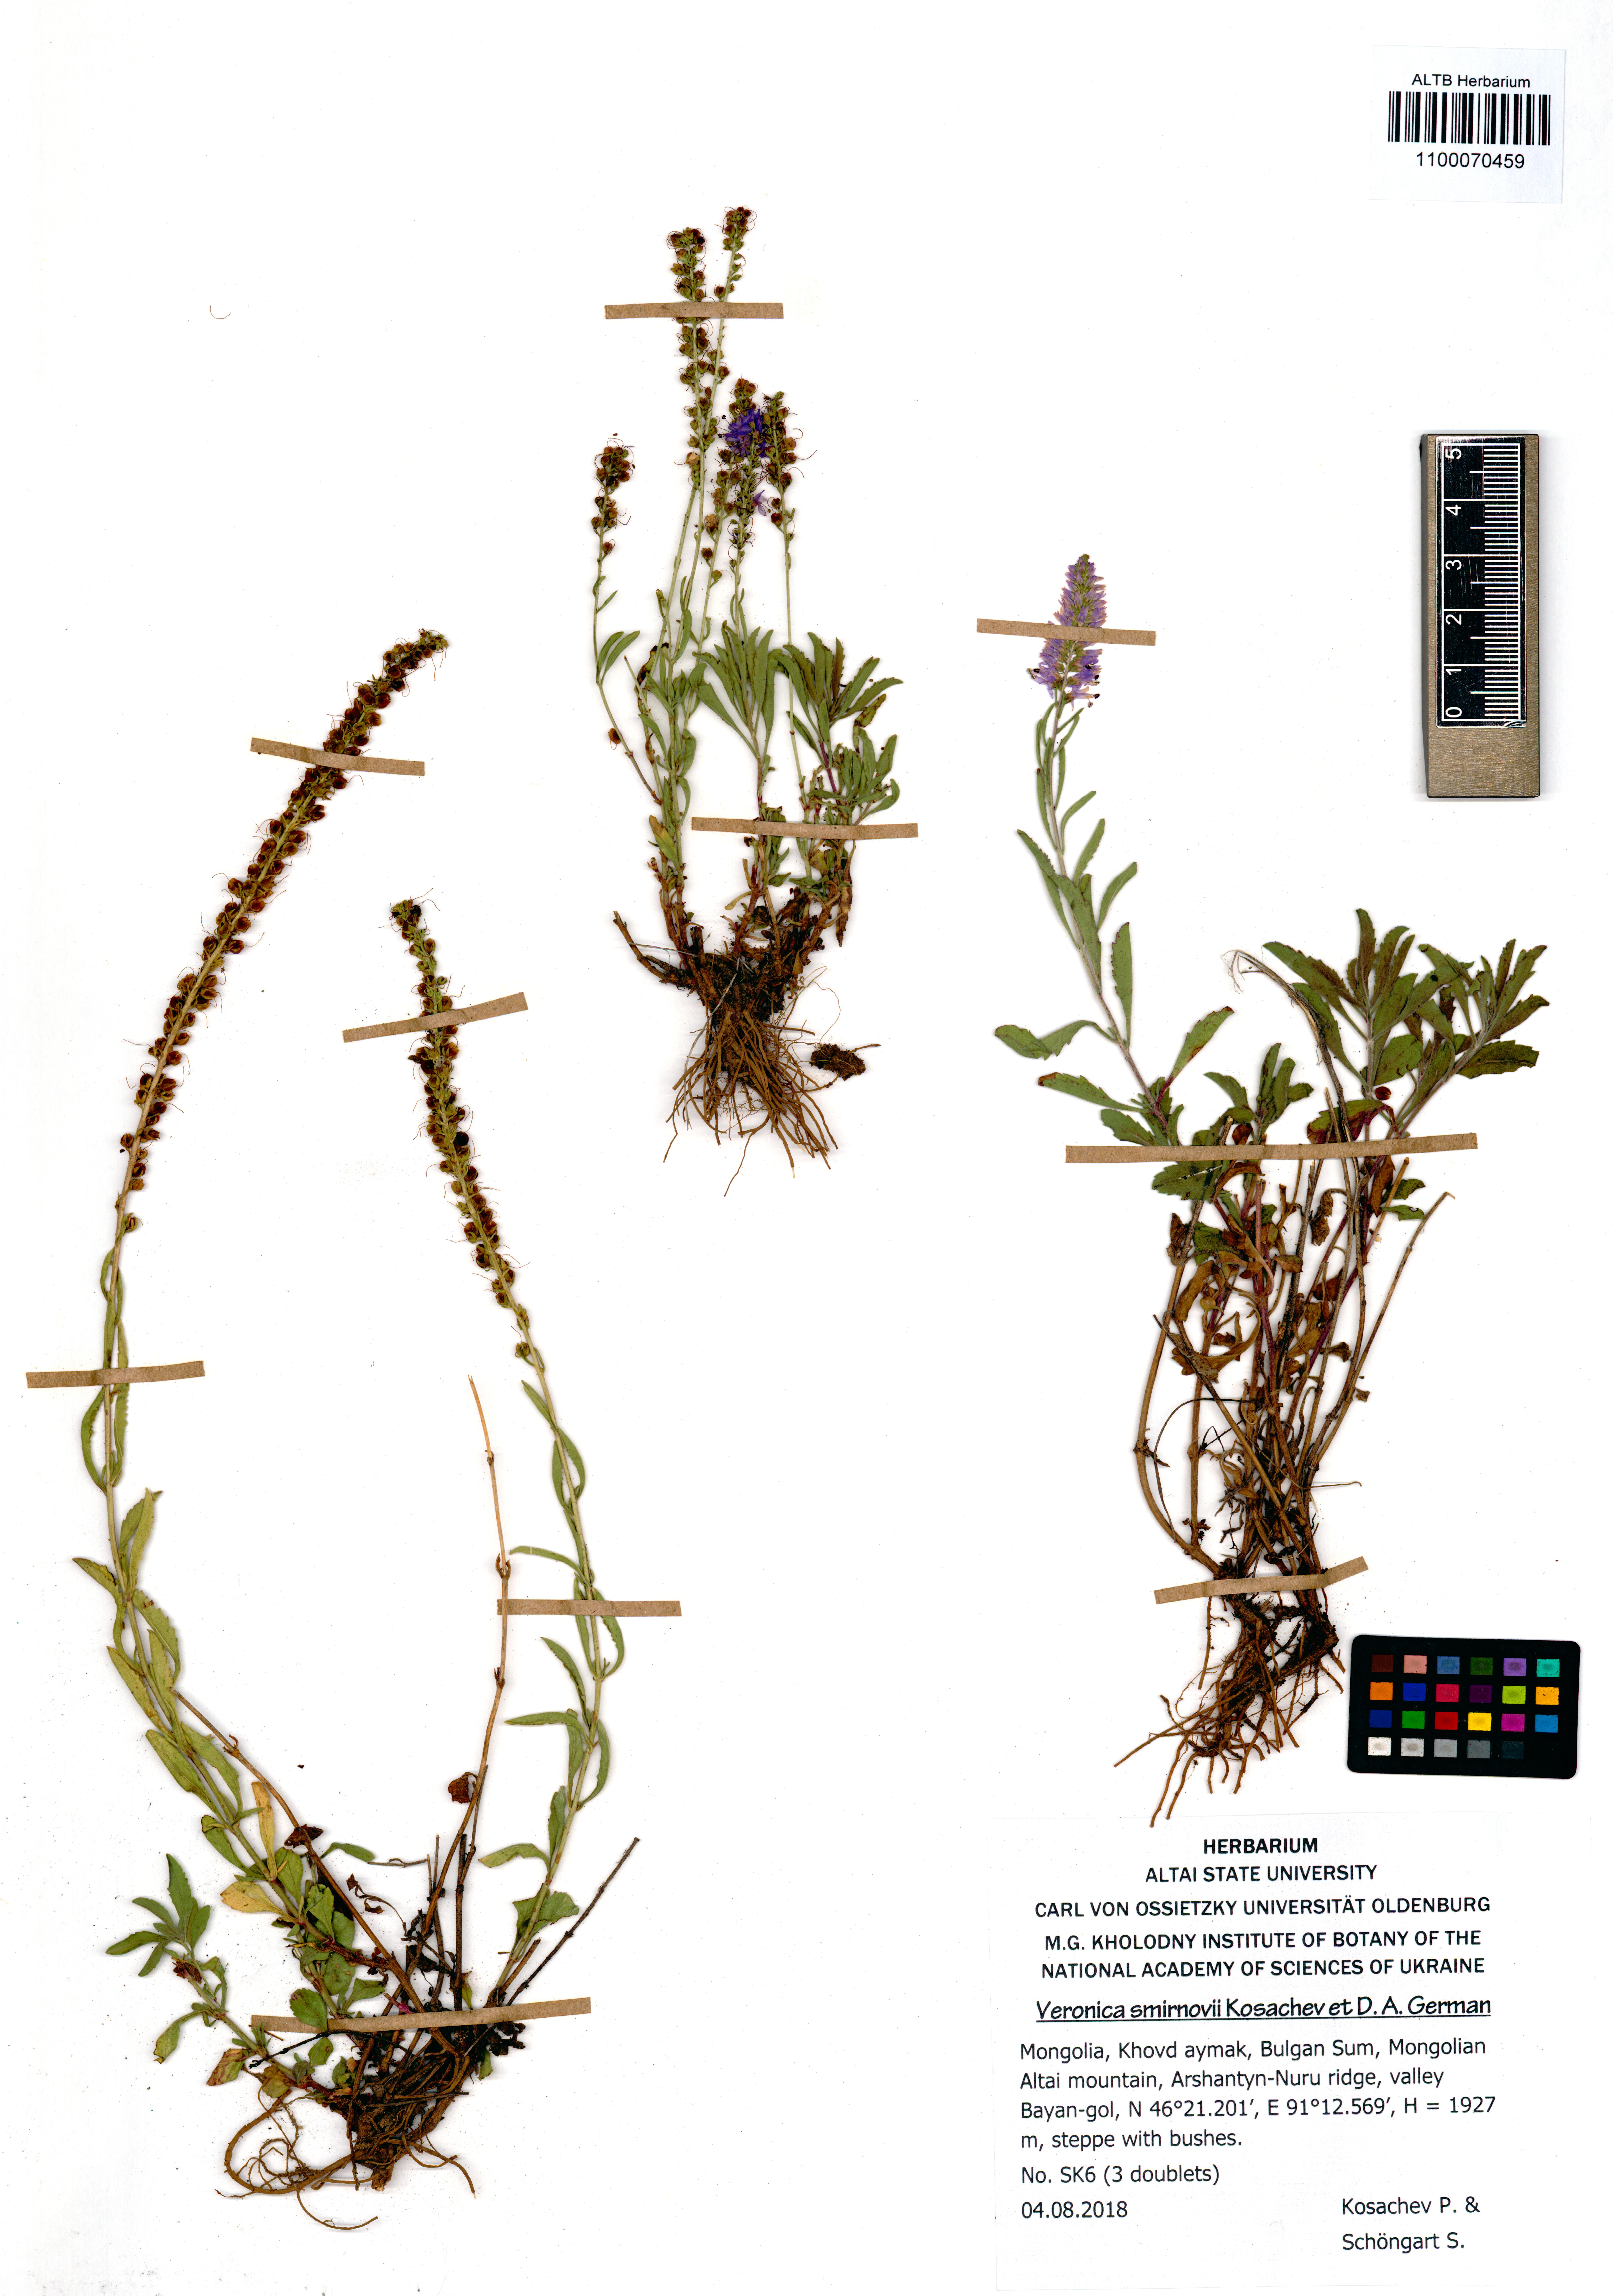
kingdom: Plantae
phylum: Tracheophyta
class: Magnoliopsida
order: Lamiales
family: Plantaginaceae
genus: Veronica
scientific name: Veronica smirnovii
